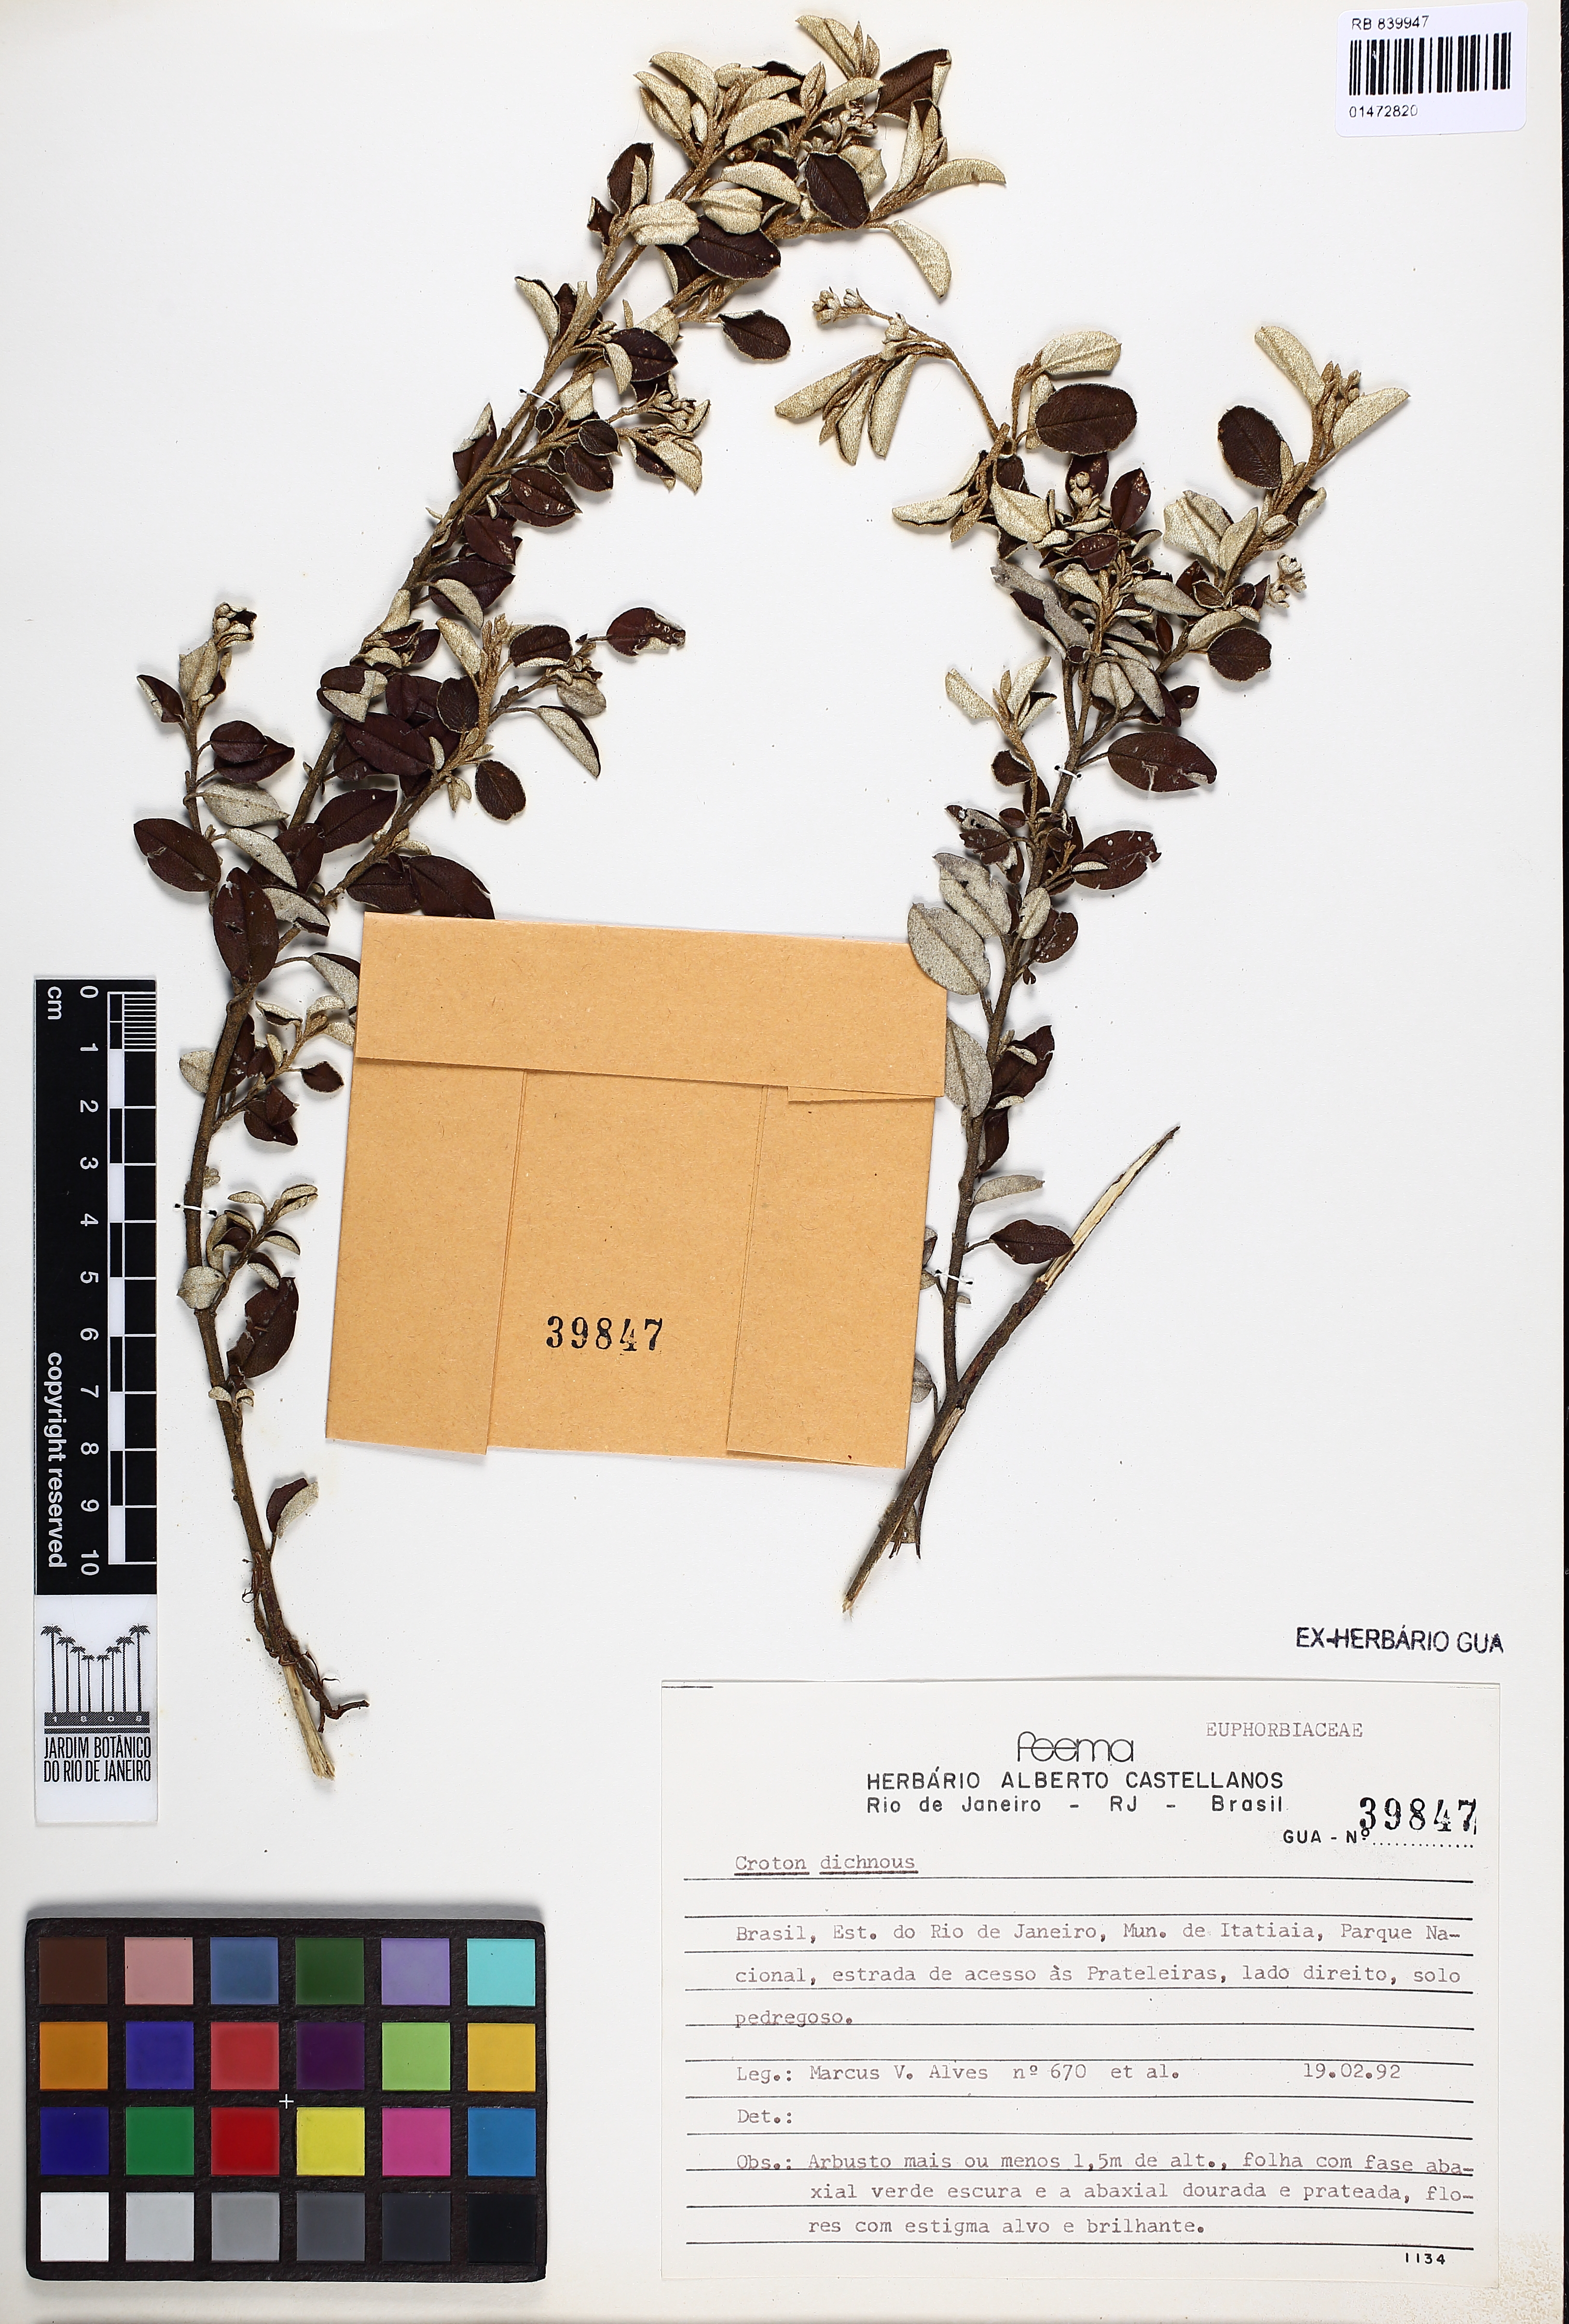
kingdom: Plantae
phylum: Tracheophyta
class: Magnoliopsida
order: Malpighiales
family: Euphorbiaceae
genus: Croton
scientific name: Croton dichrous
